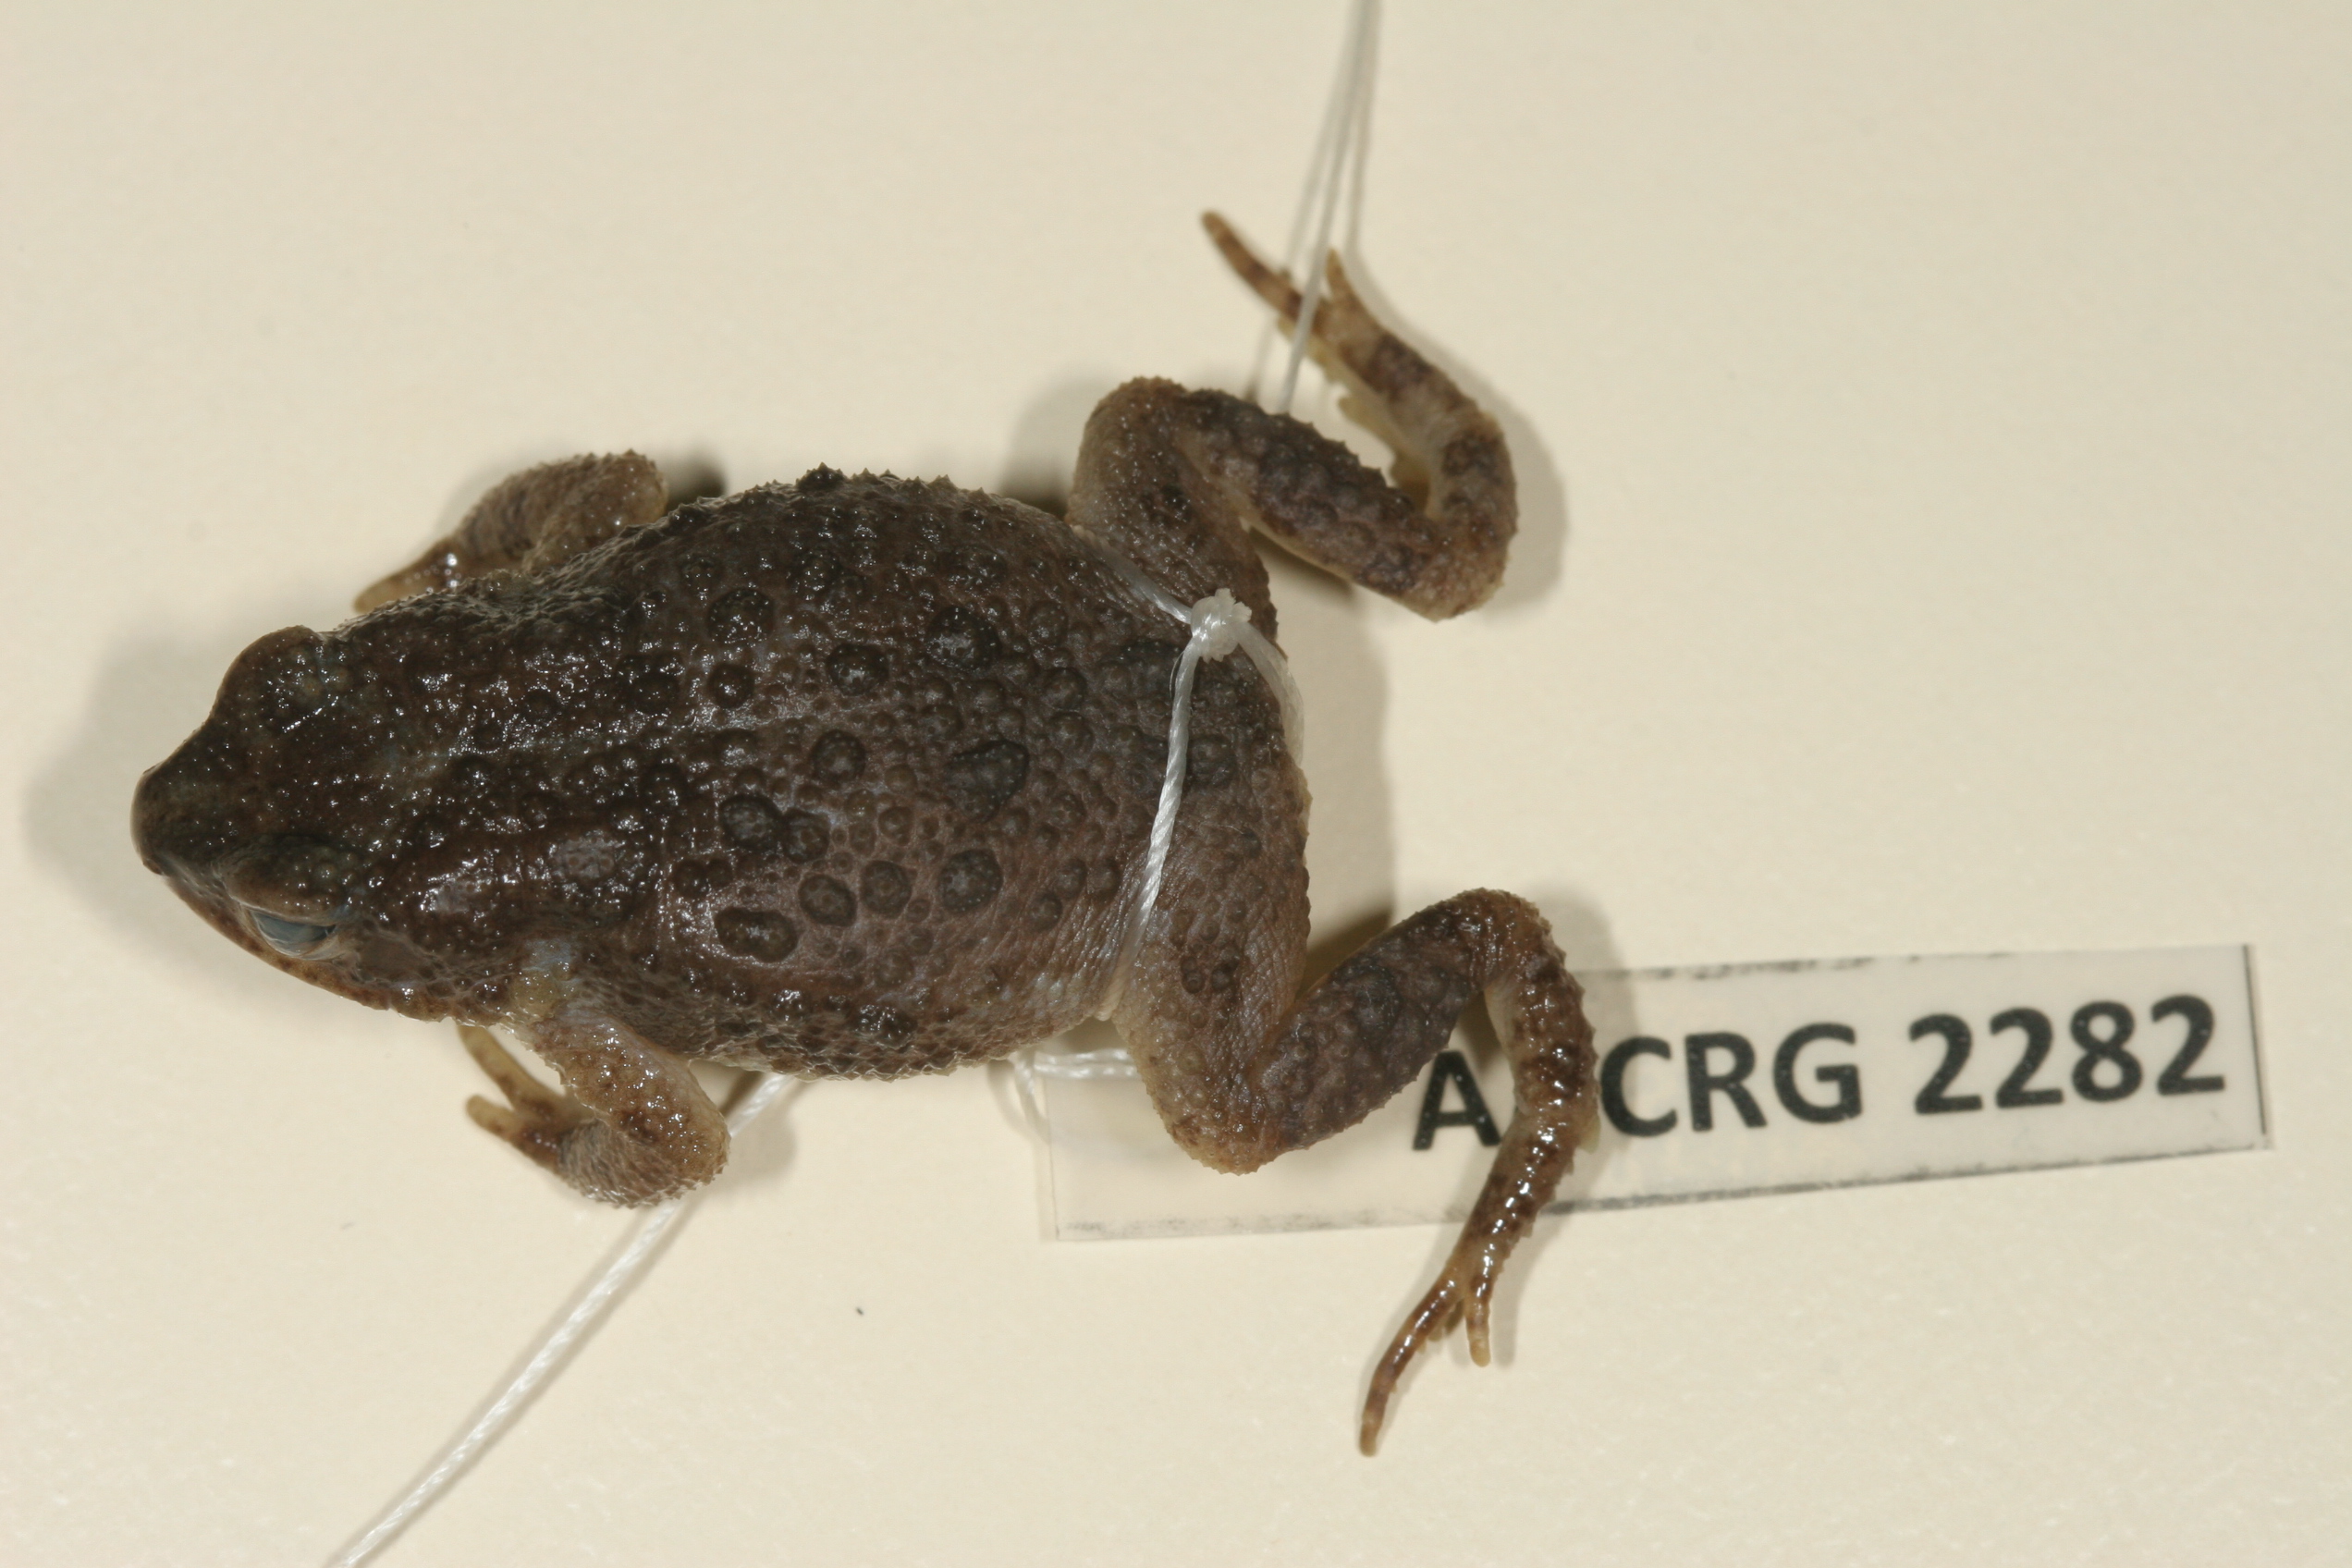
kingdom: Animalia
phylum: Chordata
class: Amphibia
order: Anura
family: Bufonidae
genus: Poyntonophrynus
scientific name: Poyntonophrynus fenoulheti
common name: Fenoulhet's toad
